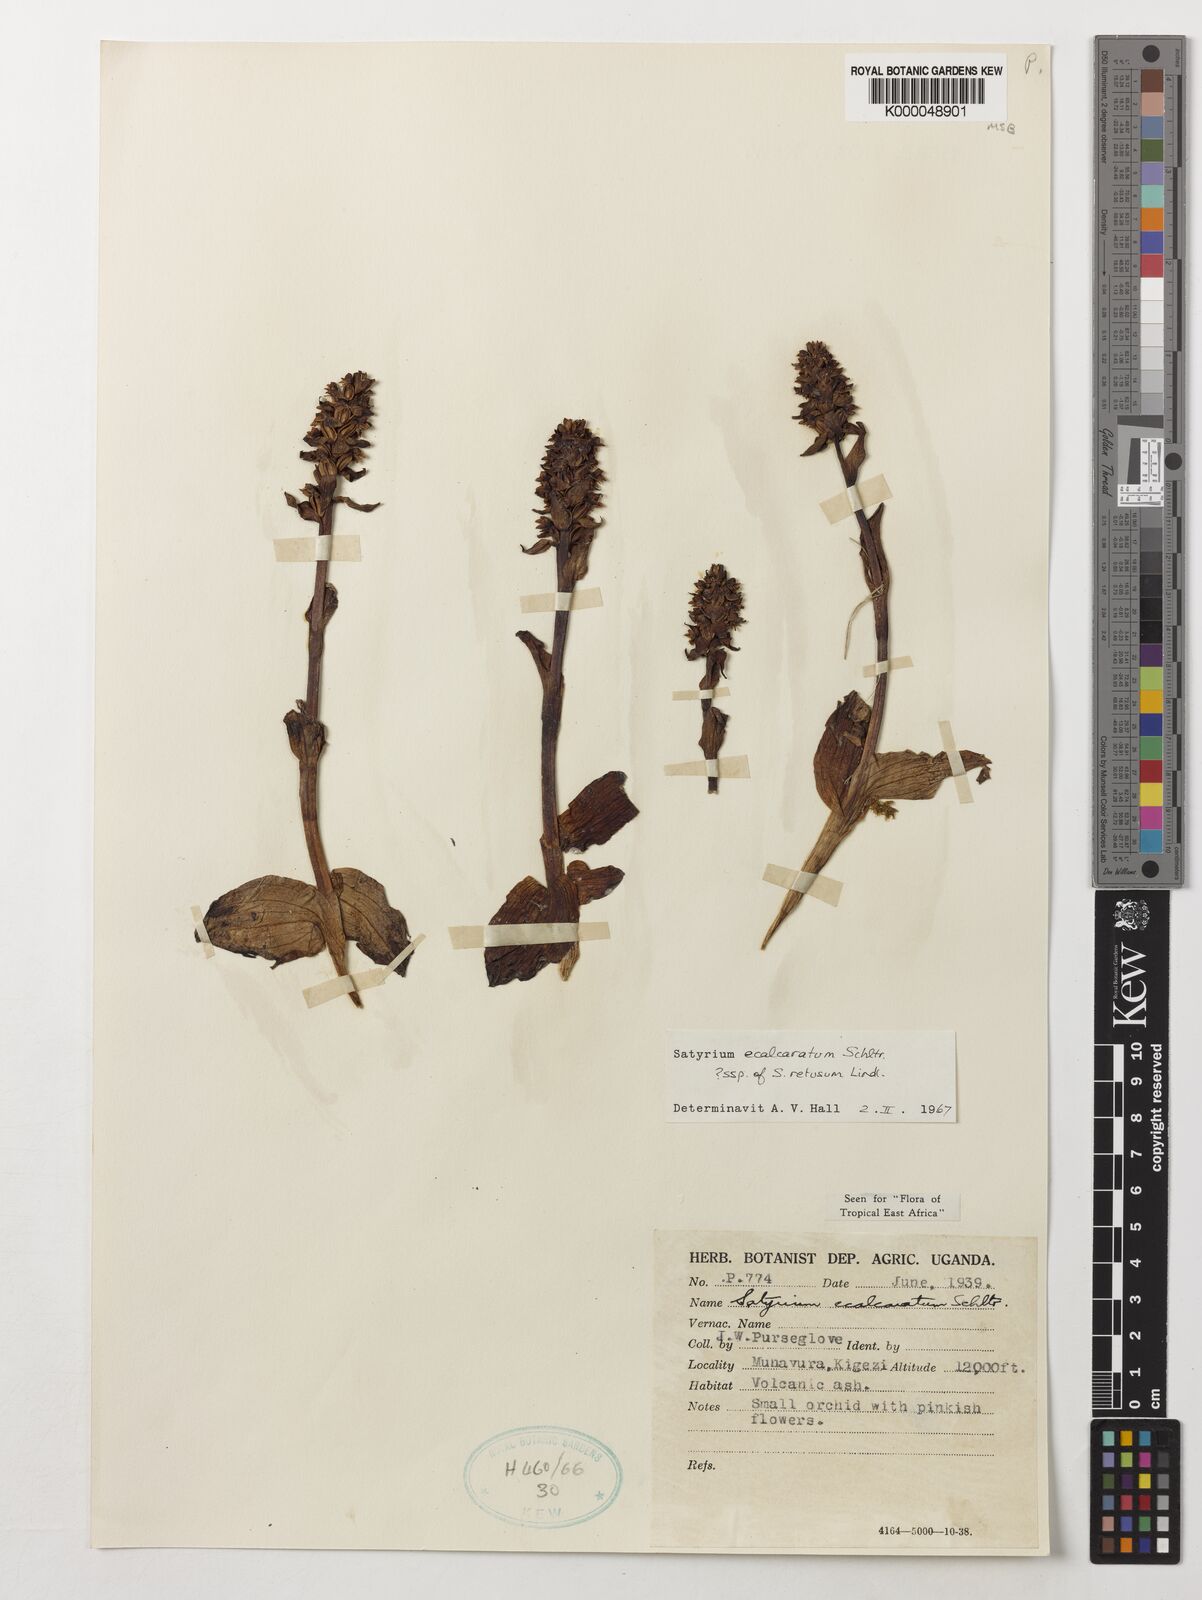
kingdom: Plantae
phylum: Tracheophyta
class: Liliopsida
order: Asparagales
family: Orchidaceae
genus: Satyrium
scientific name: Satyrium ecalcaratum
